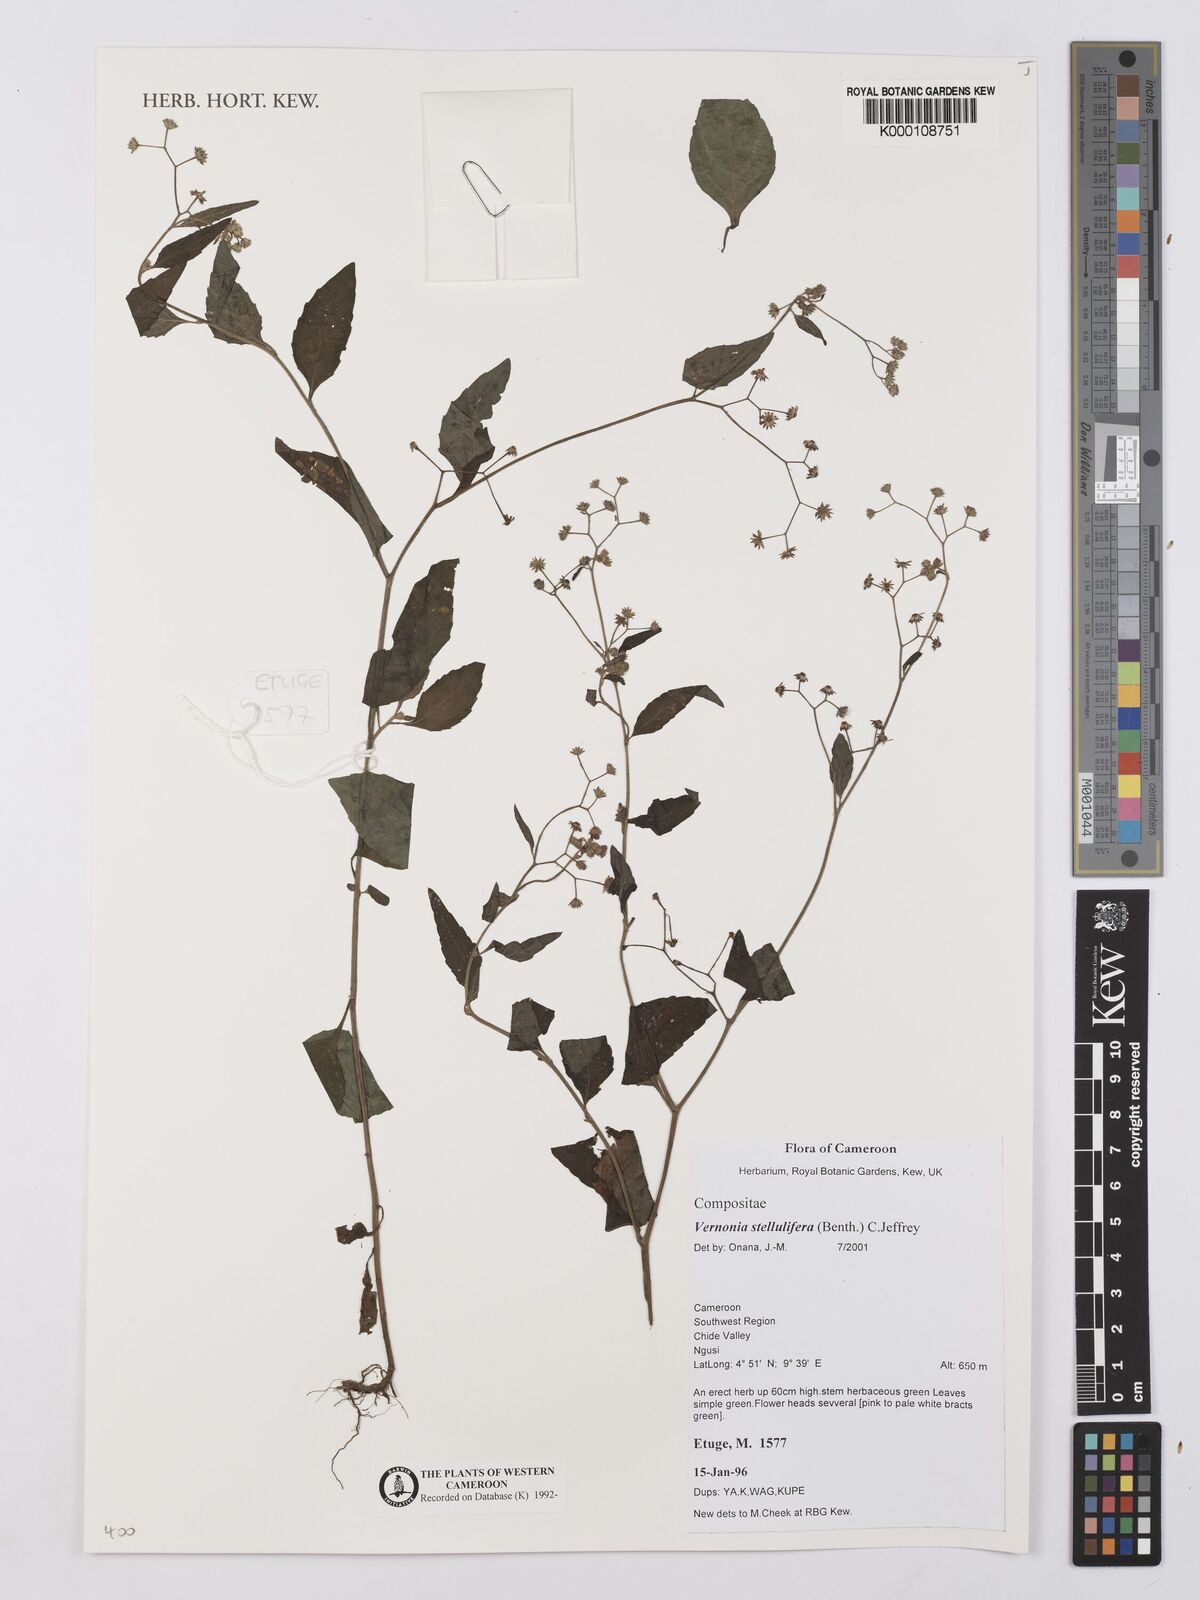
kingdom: Plantae
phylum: Tracheophyta
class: Magnoliopsida
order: Asterales
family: Asteraceae
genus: Cyanthillium
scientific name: Cyanthillium stelluliferum
